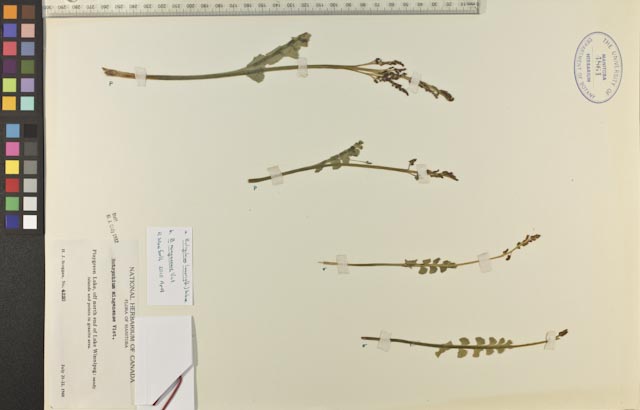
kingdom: Plantae
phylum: Tracheophyta
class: Polypodiopsida
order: Ophioglossales
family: Ophioglossaceae
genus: Botrychium
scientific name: Botrychium minganense
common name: Mingan grapefern
